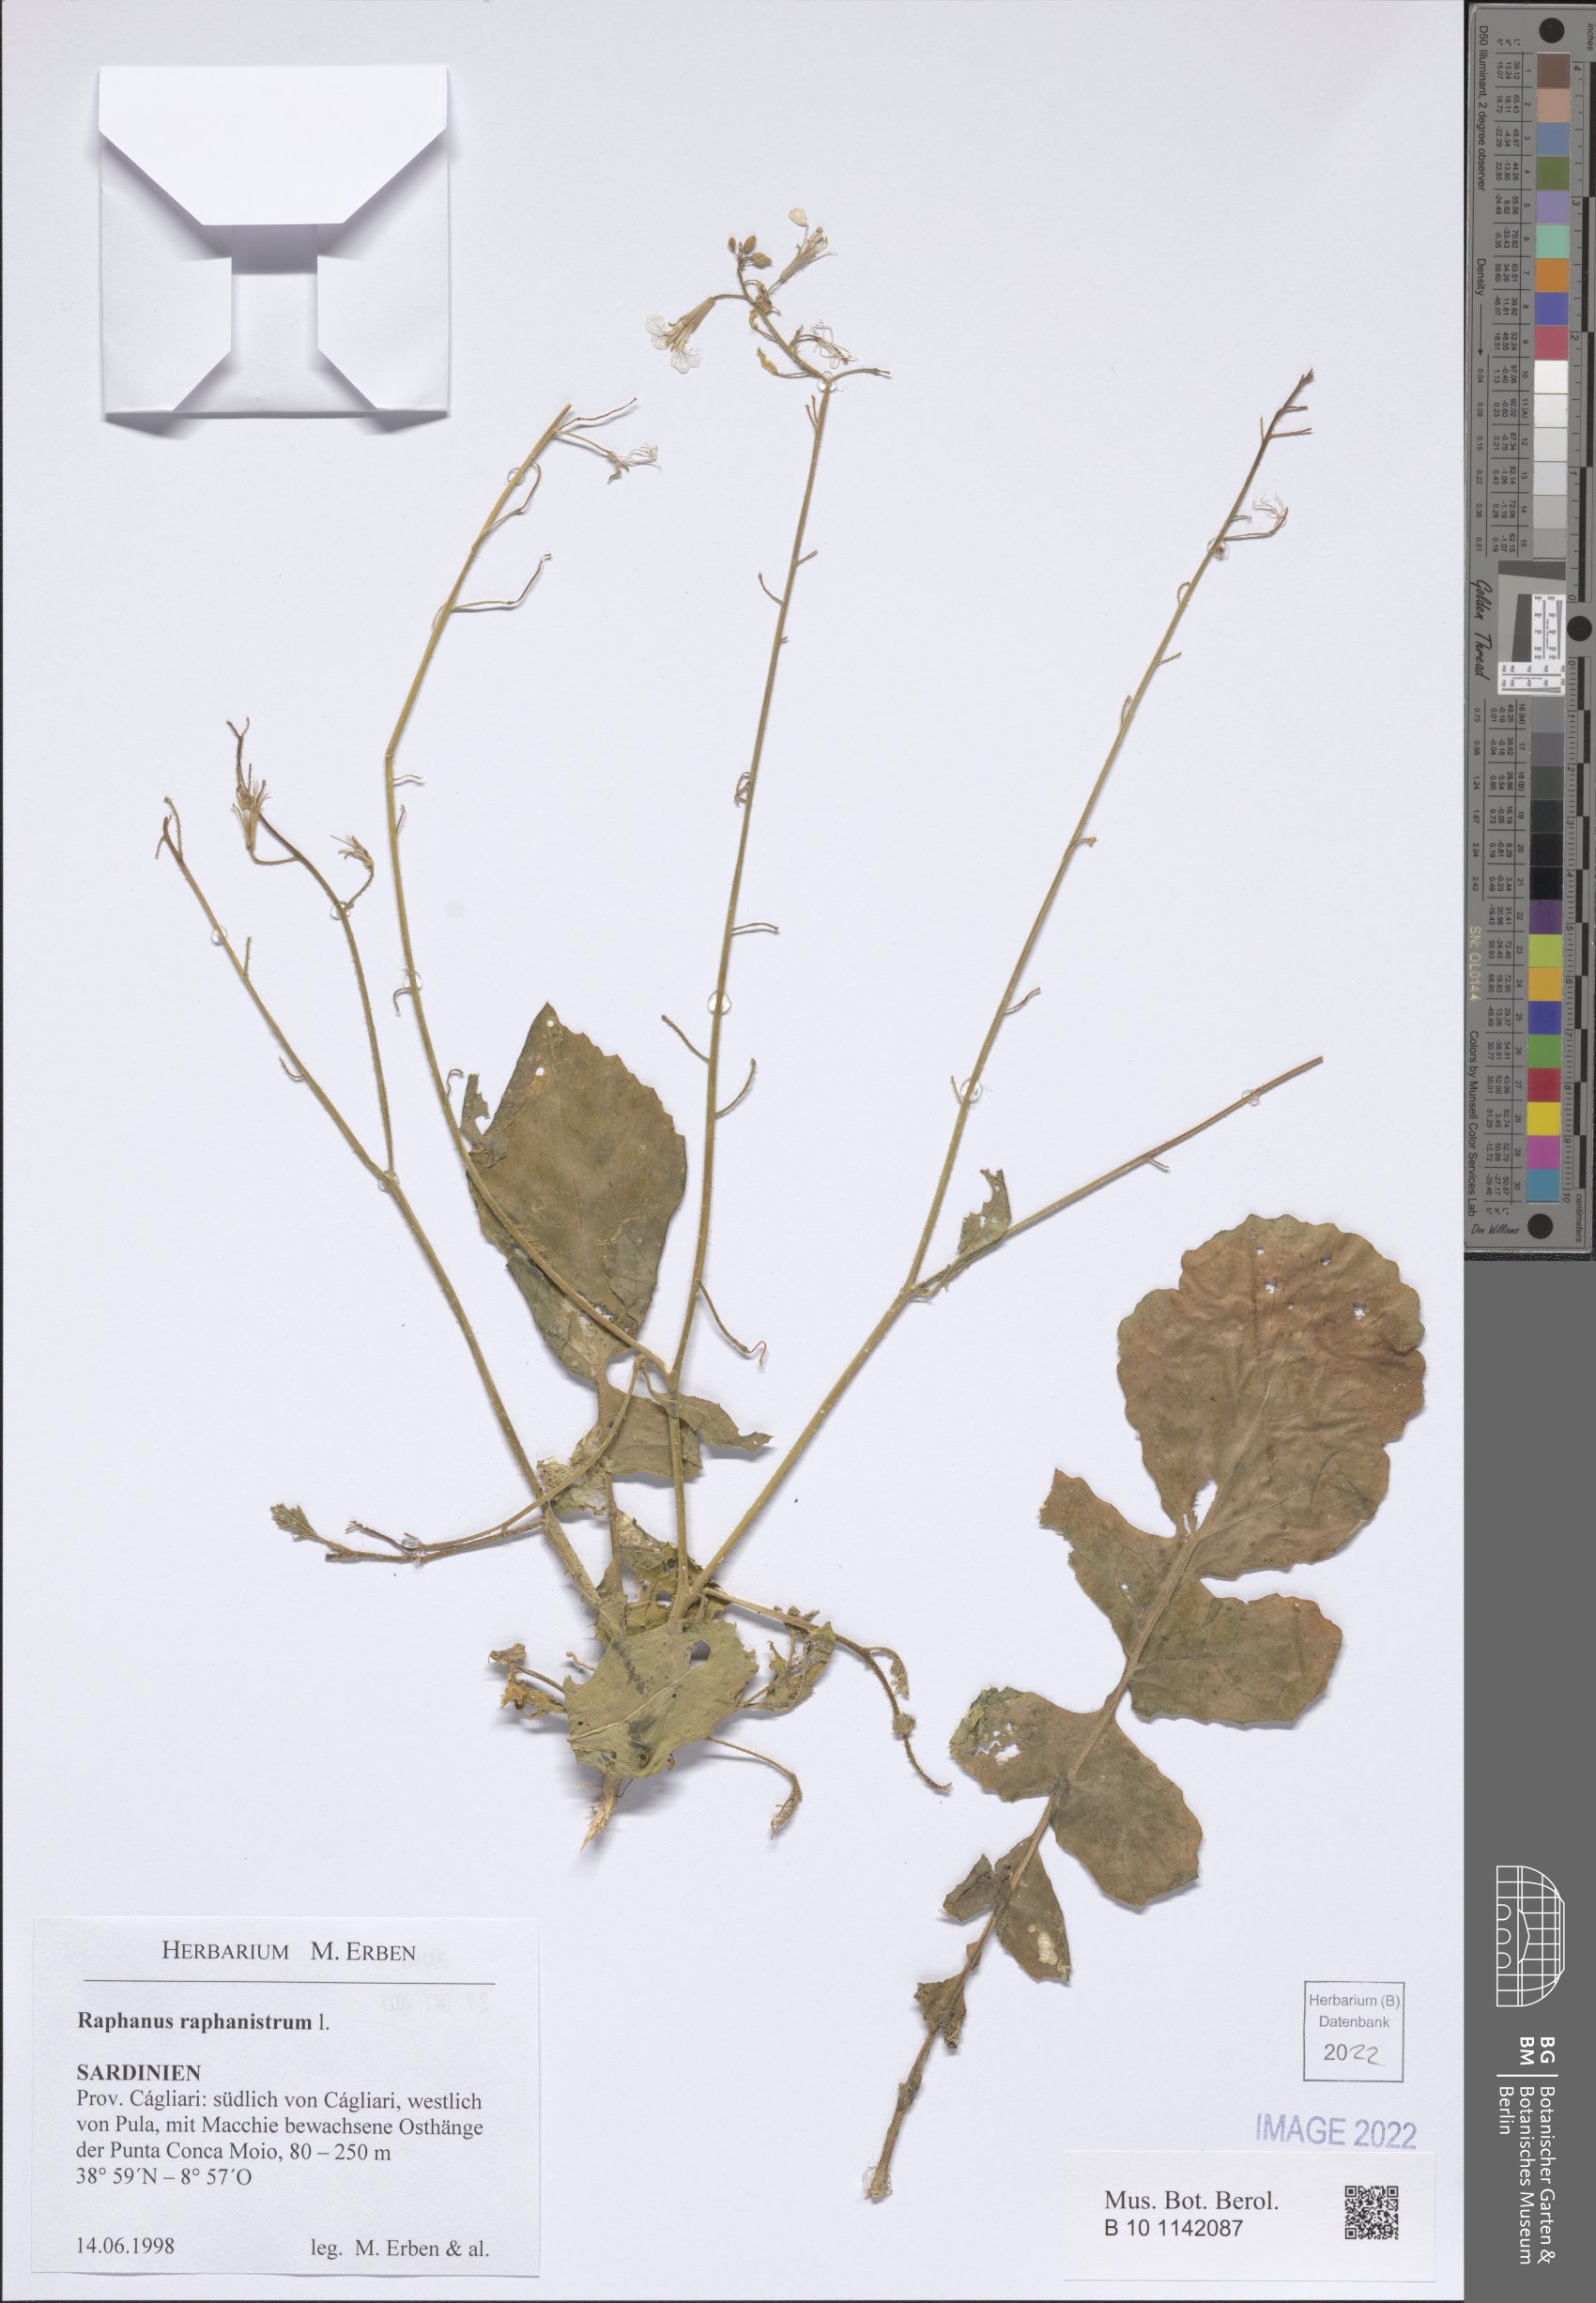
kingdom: Plantae
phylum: Tracheophyta
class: Magnoliopsida
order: Brassicales
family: Brassicaceae
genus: Raphanus
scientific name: Raphanus raphanistrum
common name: Wild radish
